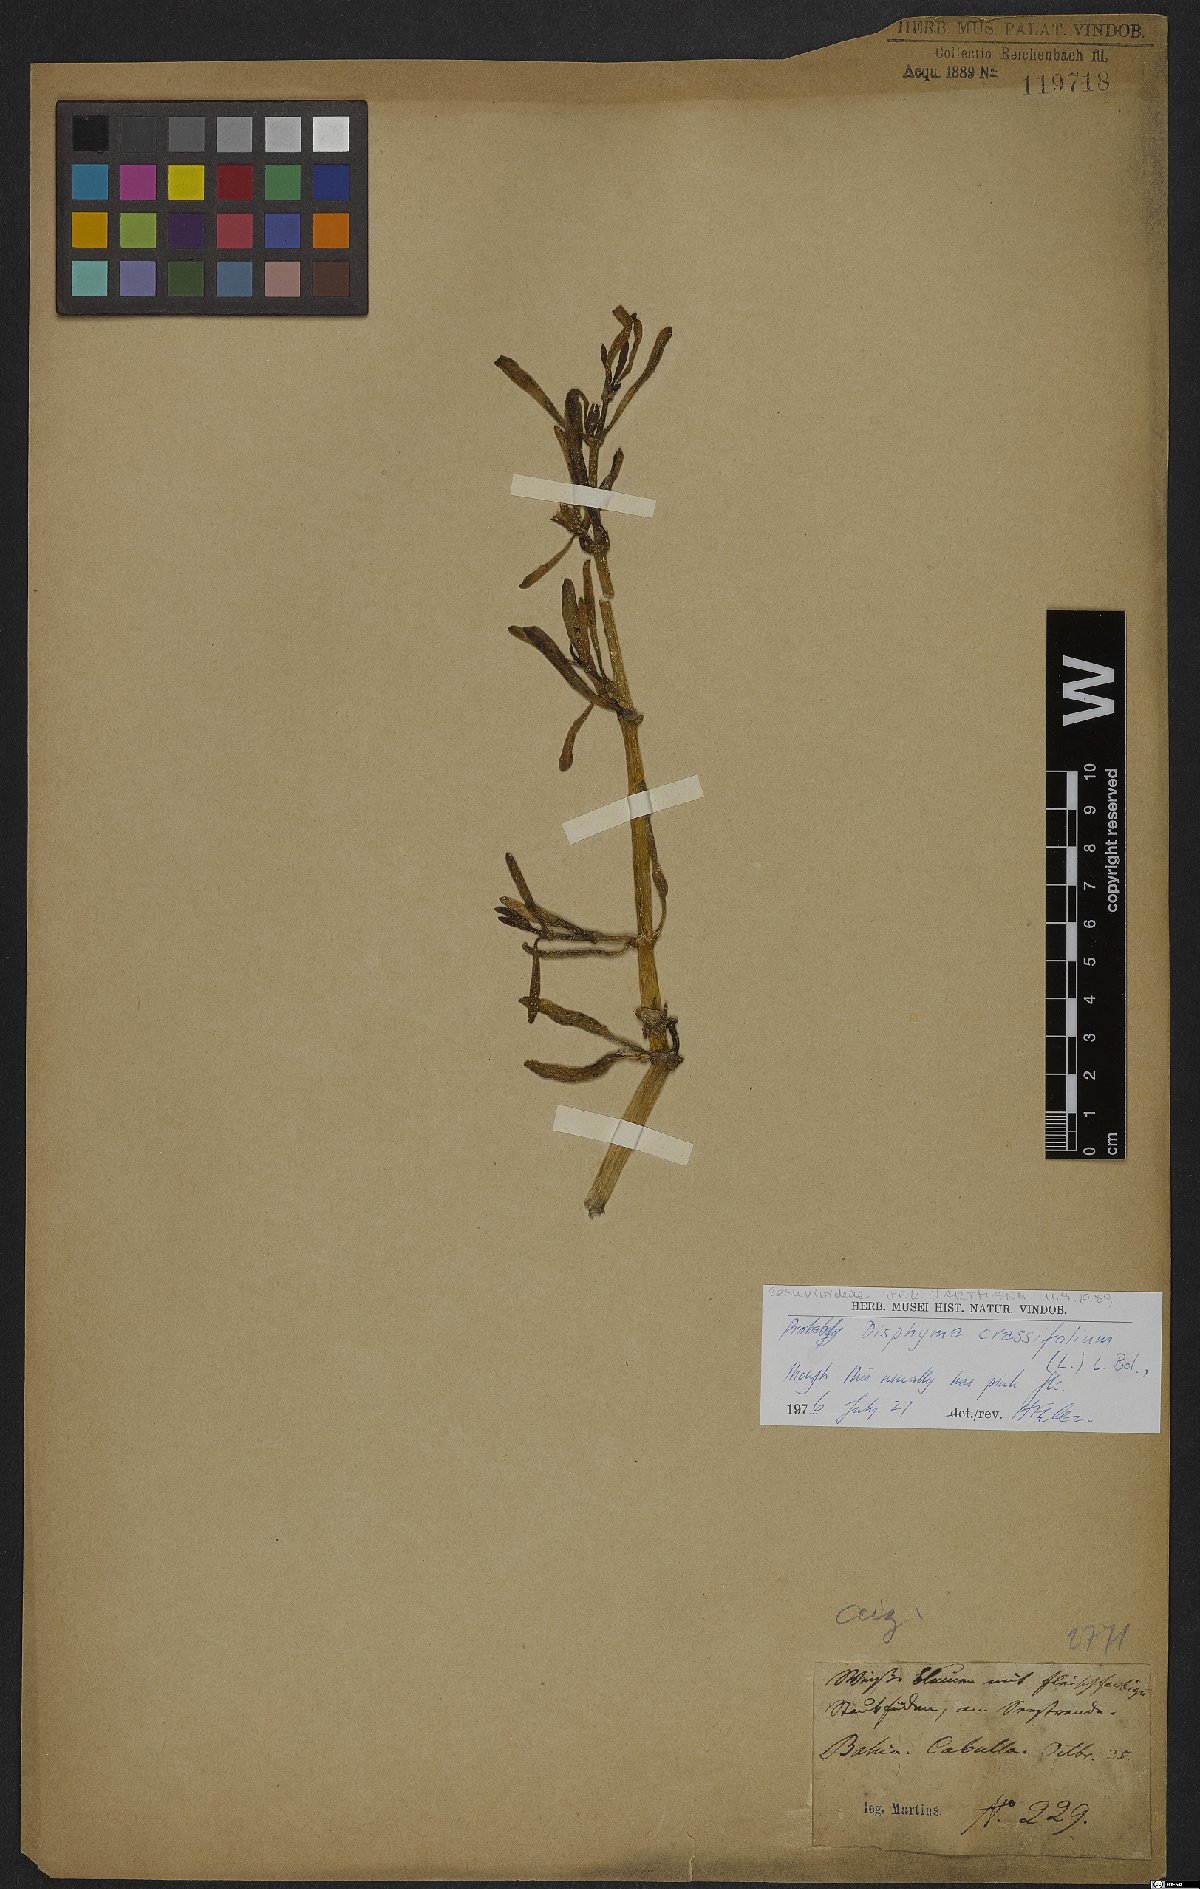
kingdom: Plantae
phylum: Tracheophyta
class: Magnoliopsida
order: Caryophyllales
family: Aizoaceae
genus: Disphyma
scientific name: Disphyma crassifolium
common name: Purple dewplant
